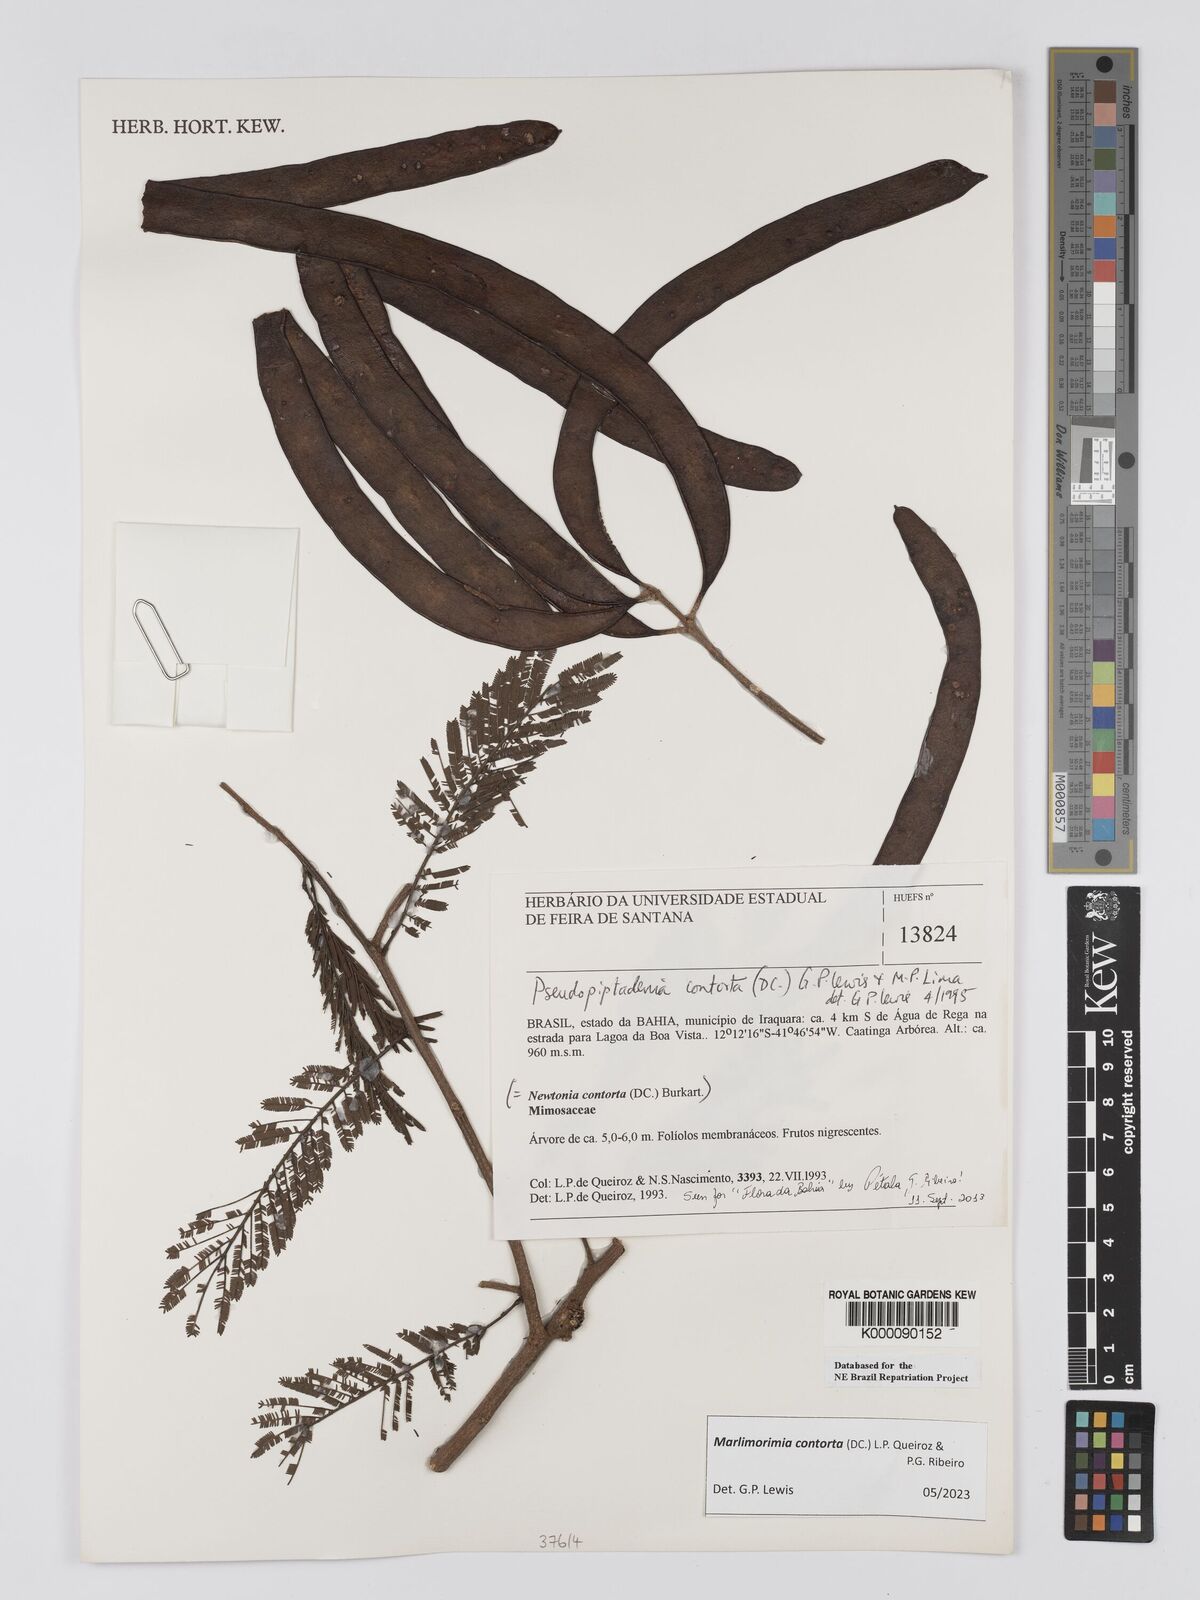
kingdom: Plantae
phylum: Tracheophyta
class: Magnoliopsida
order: Fabales
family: Fabaceae
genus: Pseudopiptadenia
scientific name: Pseudopiptadenia contorta
